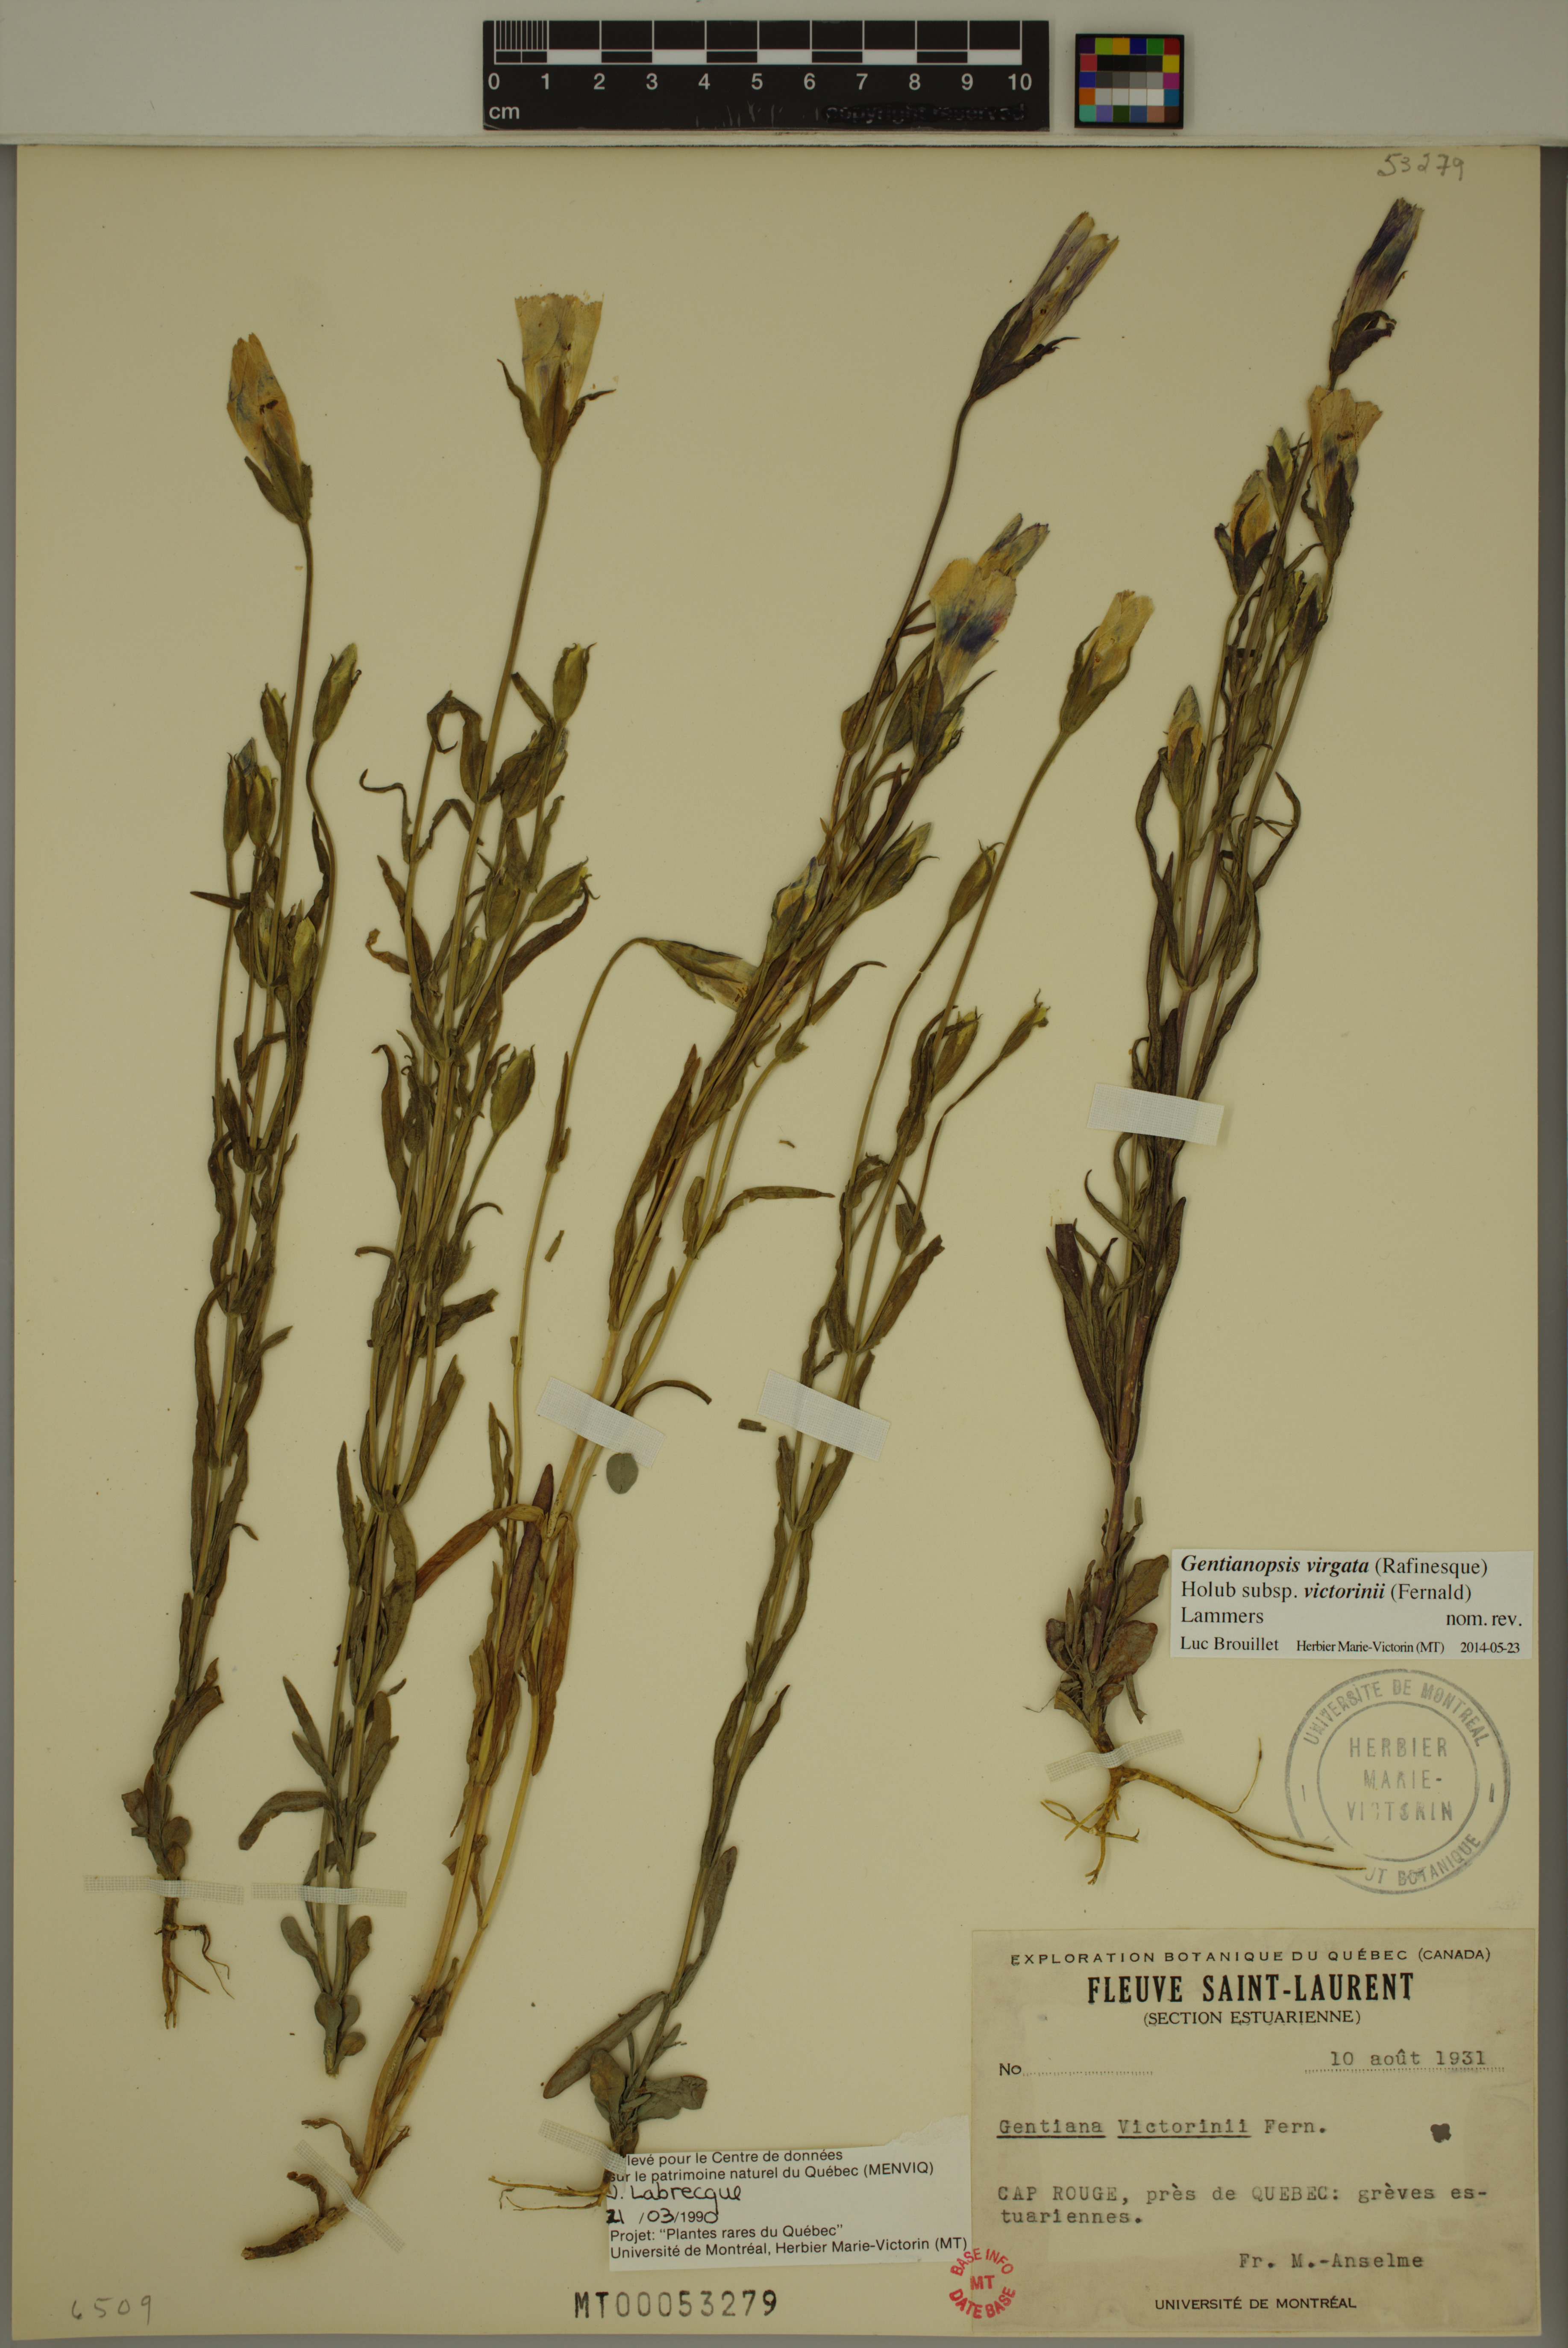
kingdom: Plantae
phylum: Tracheophyta
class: Magnoliopsida
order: Gentianales
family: Gentianaceae
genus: Gentianopsis
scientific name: Gentianopsis victorinii
